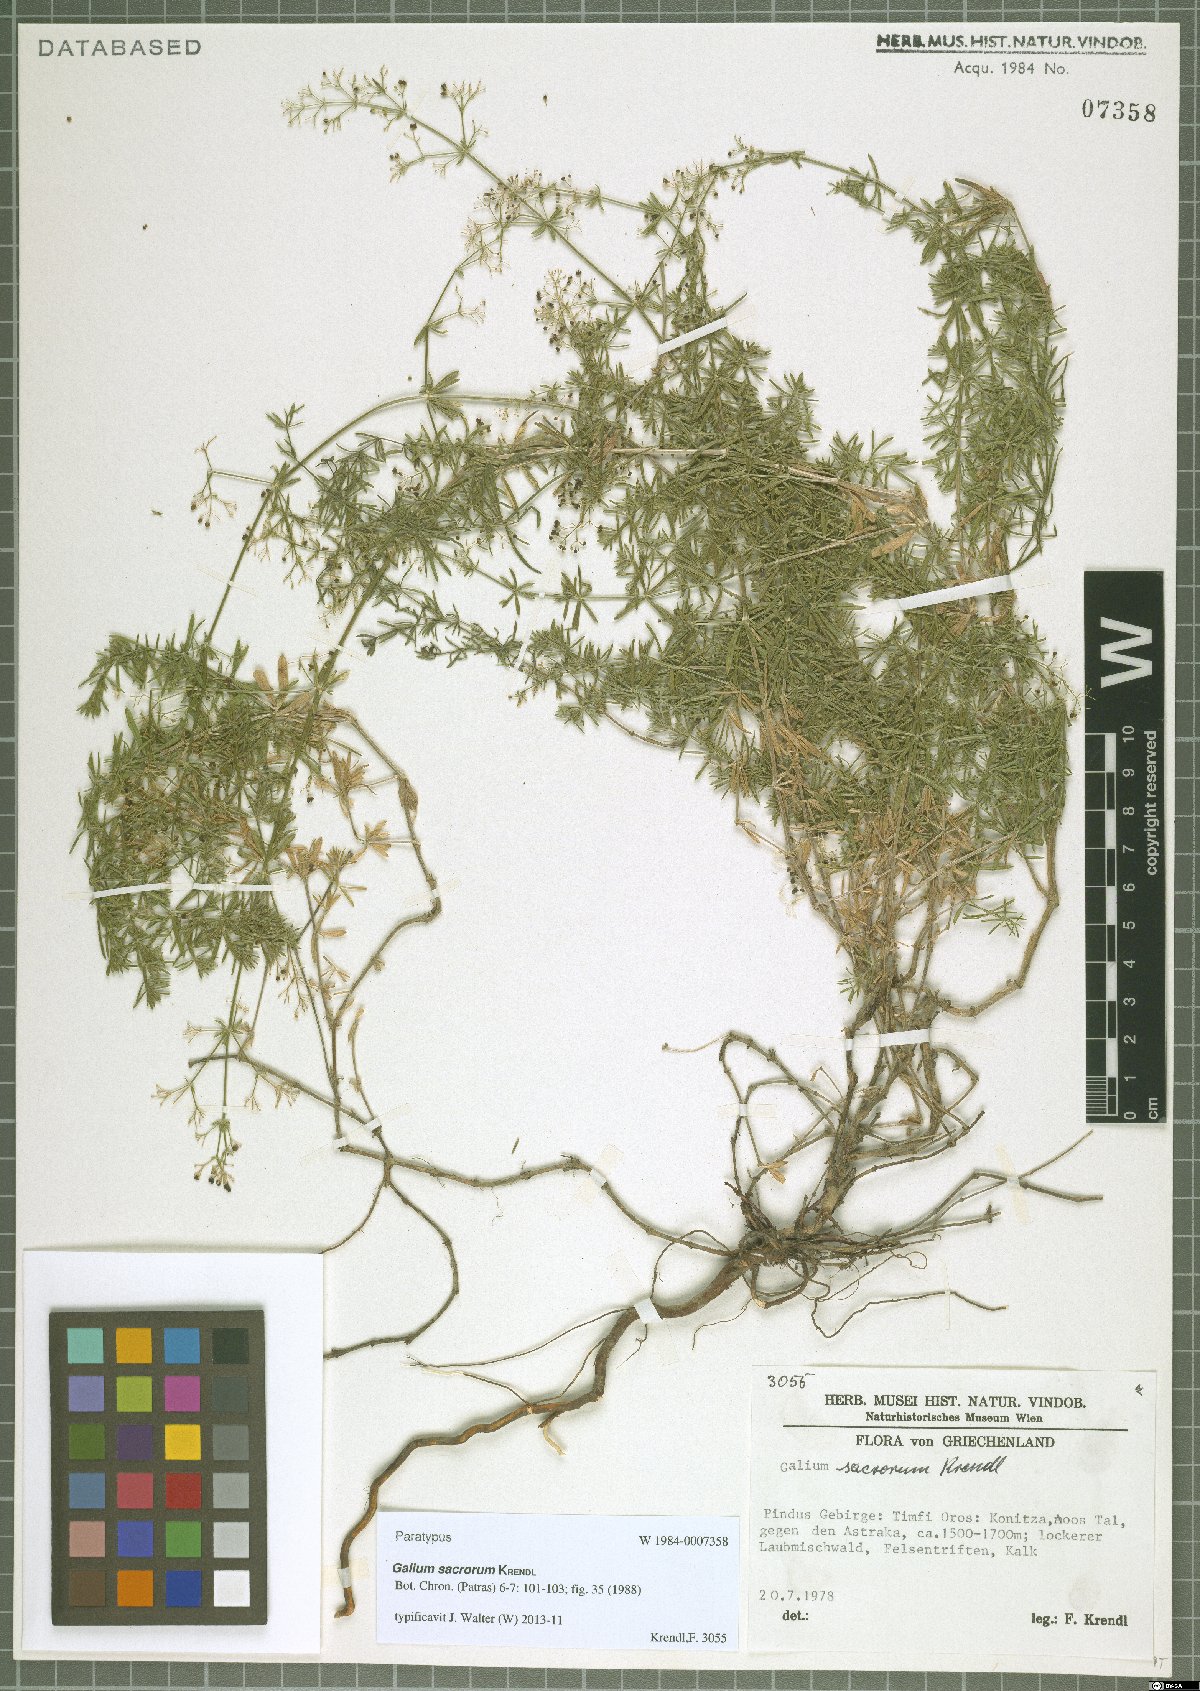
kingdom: Plantae
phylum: Tracheophyta
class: Magnoliopsida
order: Gentianales
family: Rubiaceae
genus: Galium
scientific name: Galium monasterium
